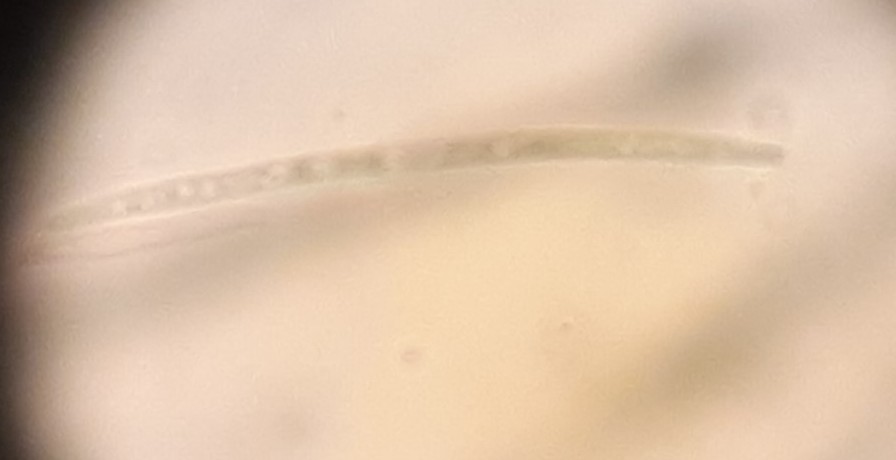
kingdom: Fungi
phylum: Ascomycota
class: Dothideomycetes
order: Capnodiales
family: Mycosphaerellaceae
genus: Septoria
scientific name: Septoria cornicola
